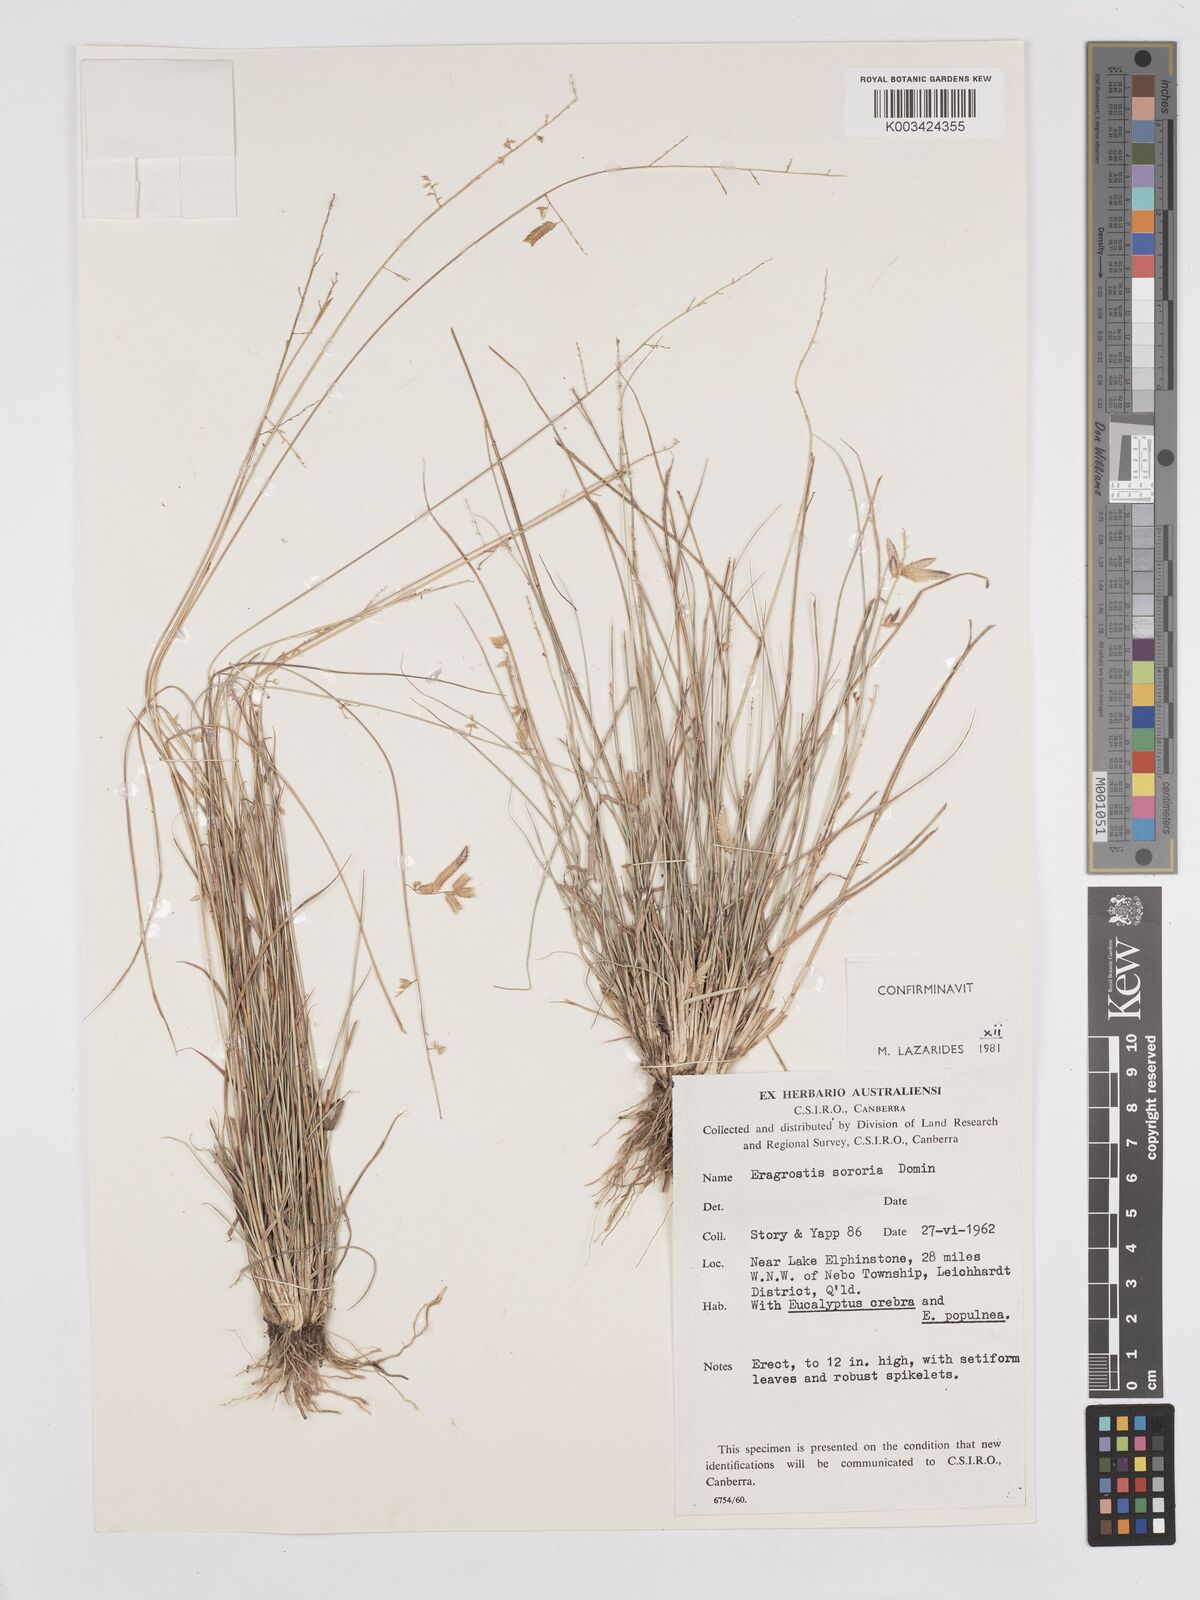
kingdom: Plantae
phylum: Tracheophyta
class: Liliopsida
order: Poales
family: Poaceae
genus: Eragrostis
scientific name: Eragrostis sororia
